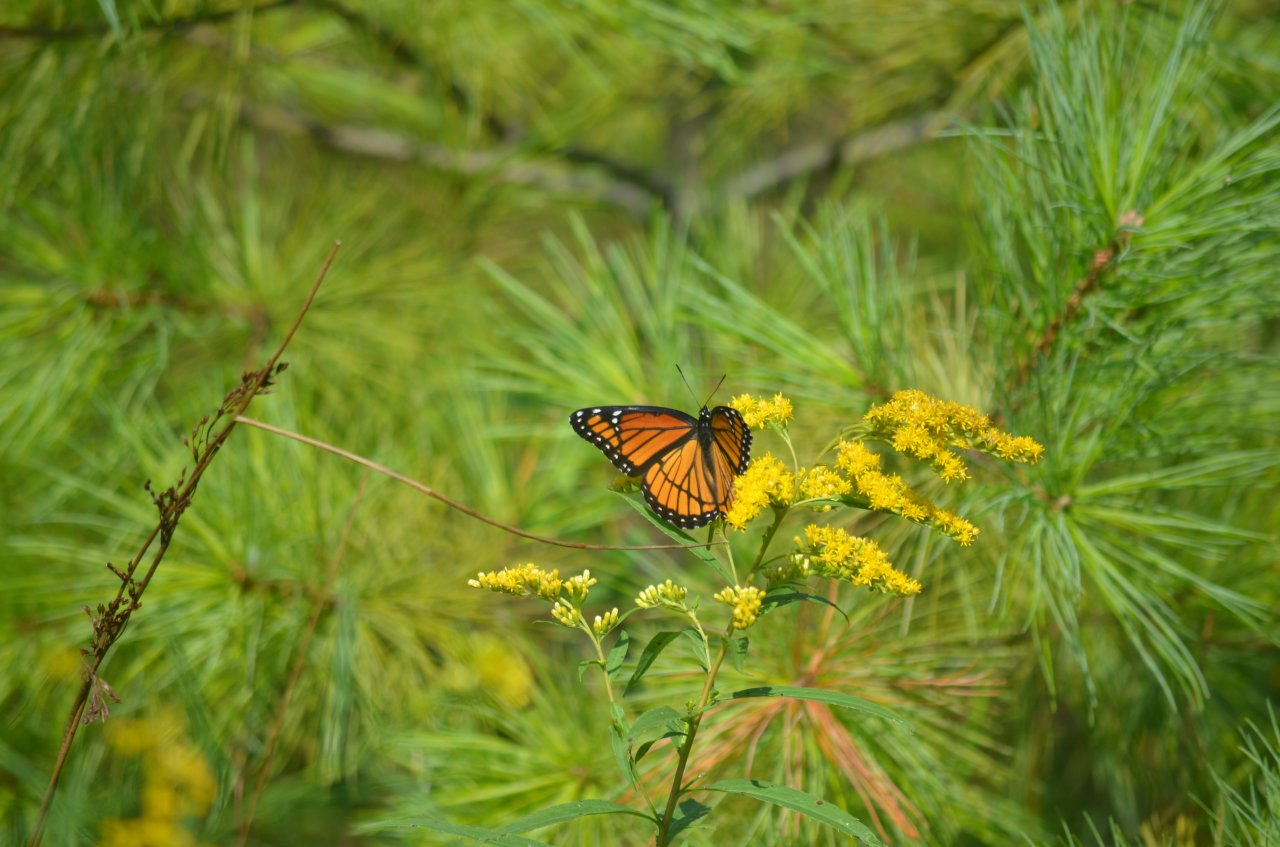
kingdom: Animalia
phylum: Arthropoda
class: Insecta
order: Lepidoptera
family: Nymphalidae
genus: Limenitis
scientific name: Limenitis archippus
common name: Viceroy
